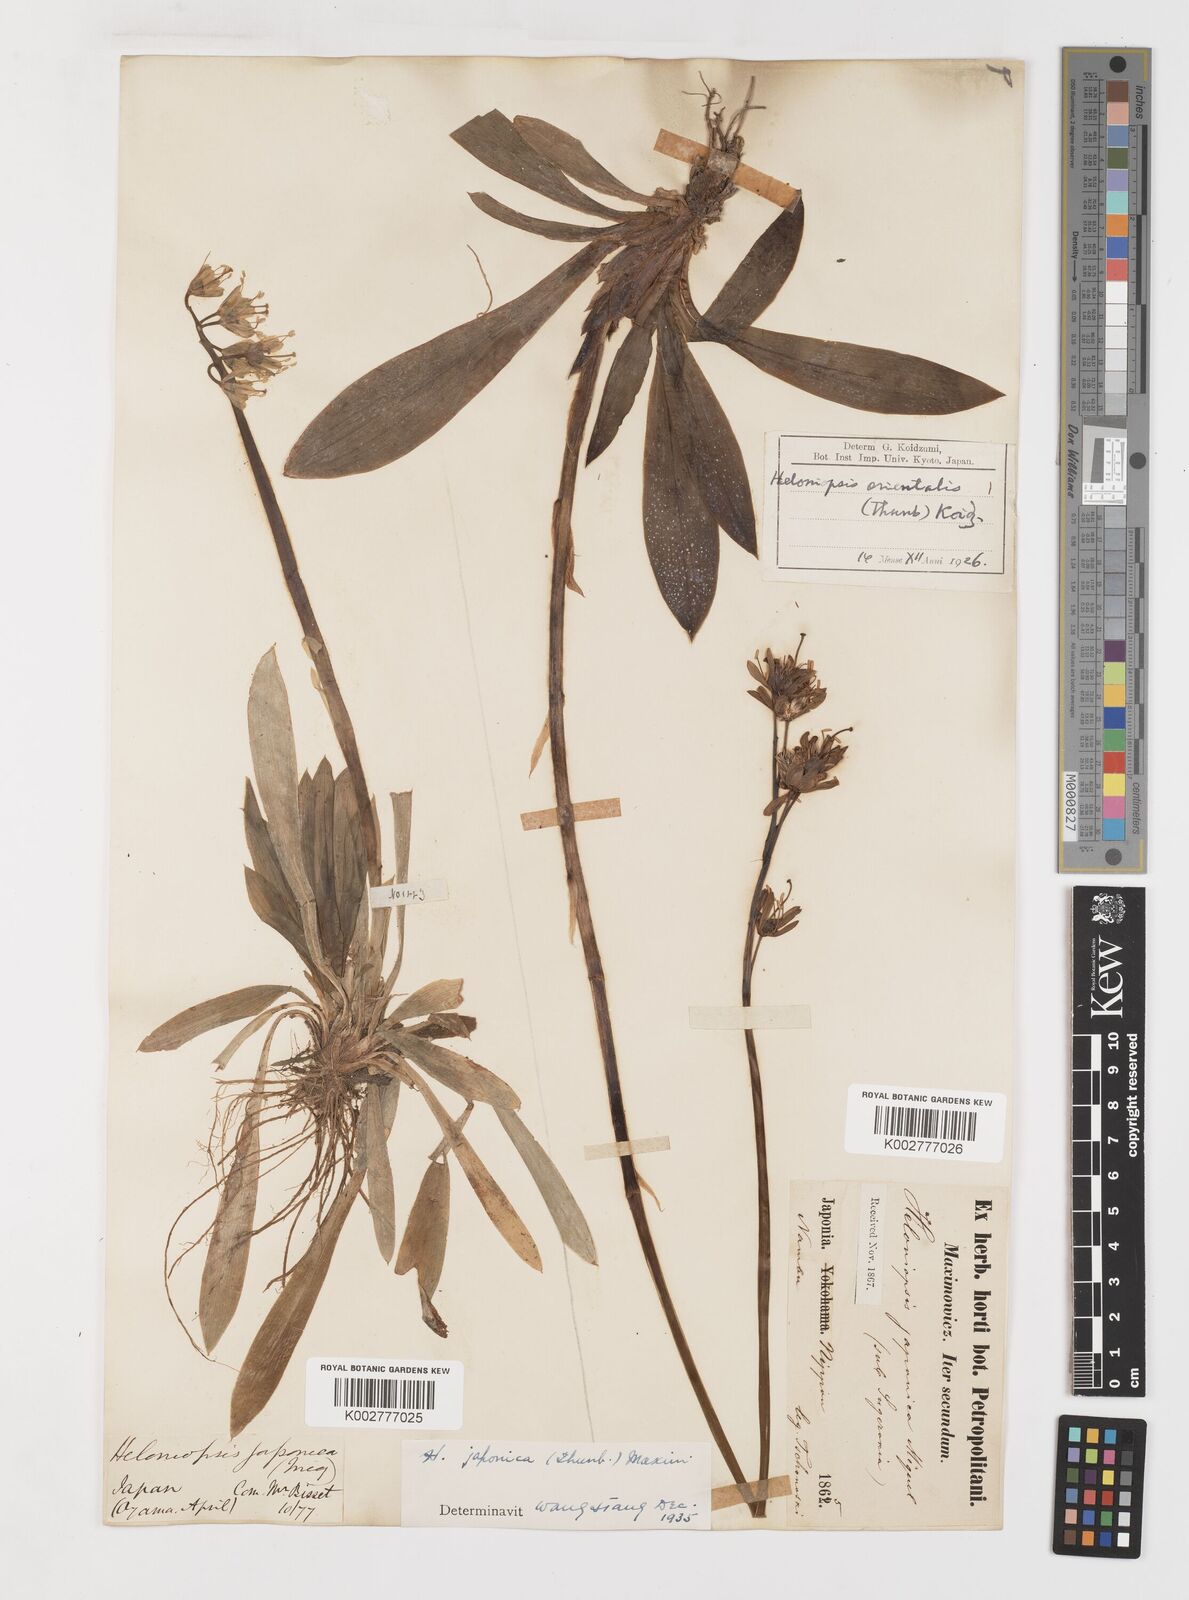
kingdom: Plantae
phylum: Tracheophyta
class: Liliopsida
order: Liliales
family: Melanthiaceae
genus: Helonias
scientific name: Helonias orientalis
